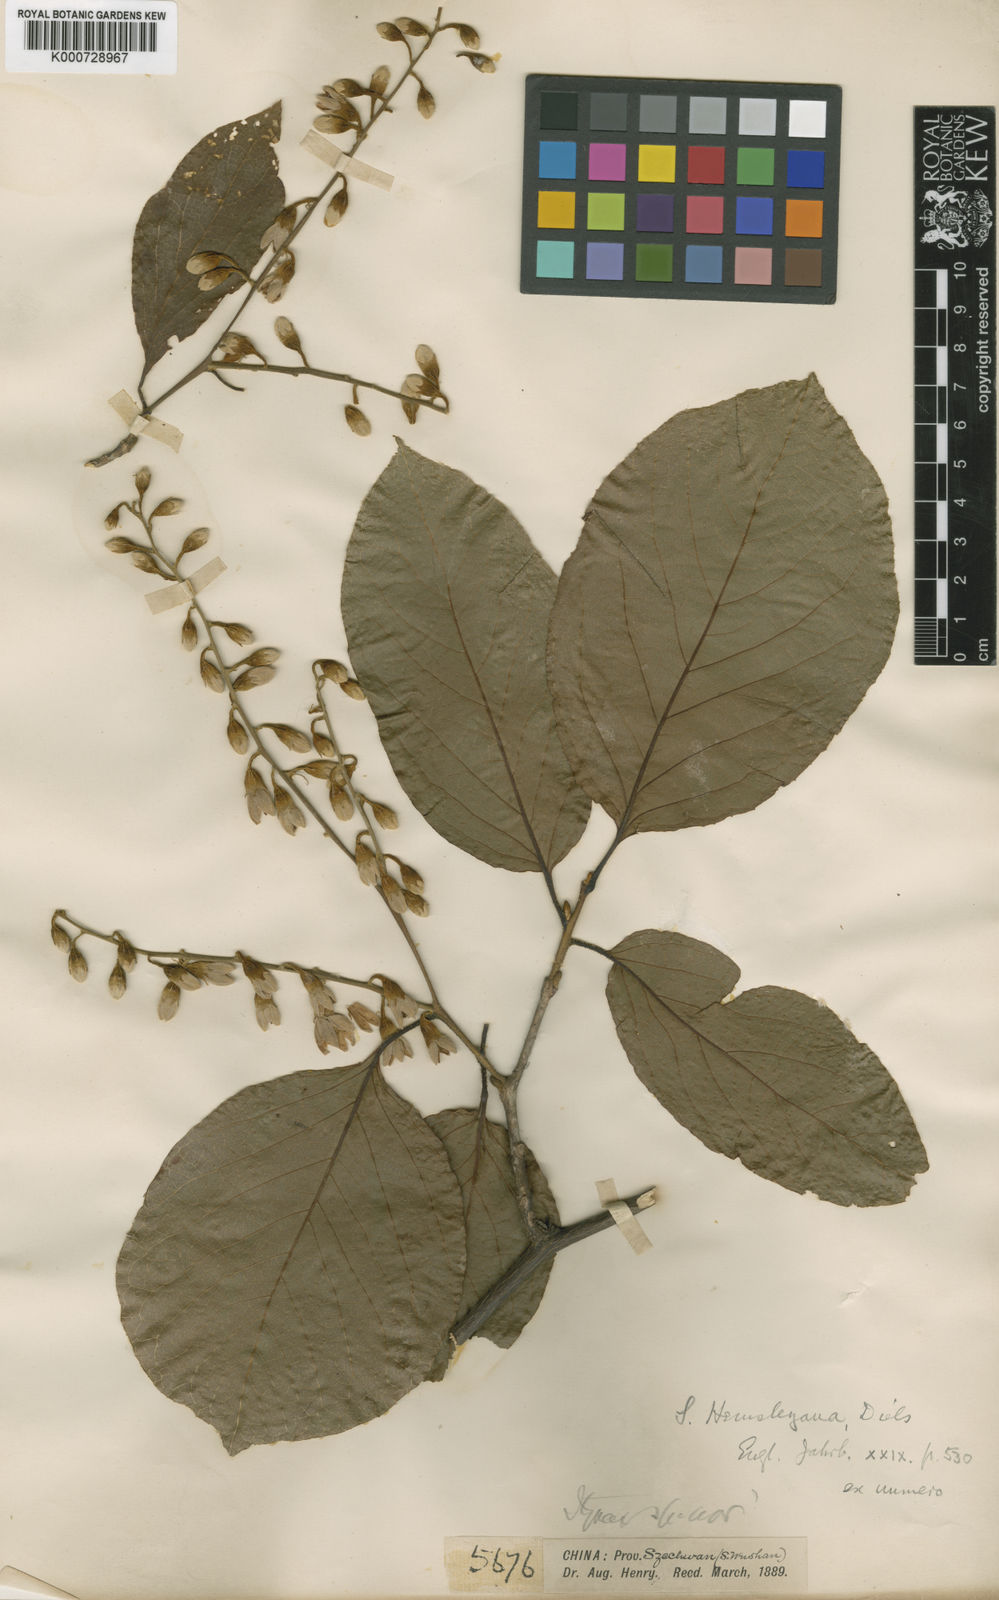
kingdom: Plantae
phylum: Tracheophyta
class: Magnoliopsida
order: Ericales
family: Styracaceae
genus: Styrax
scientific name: Styrax hemsleyanus
